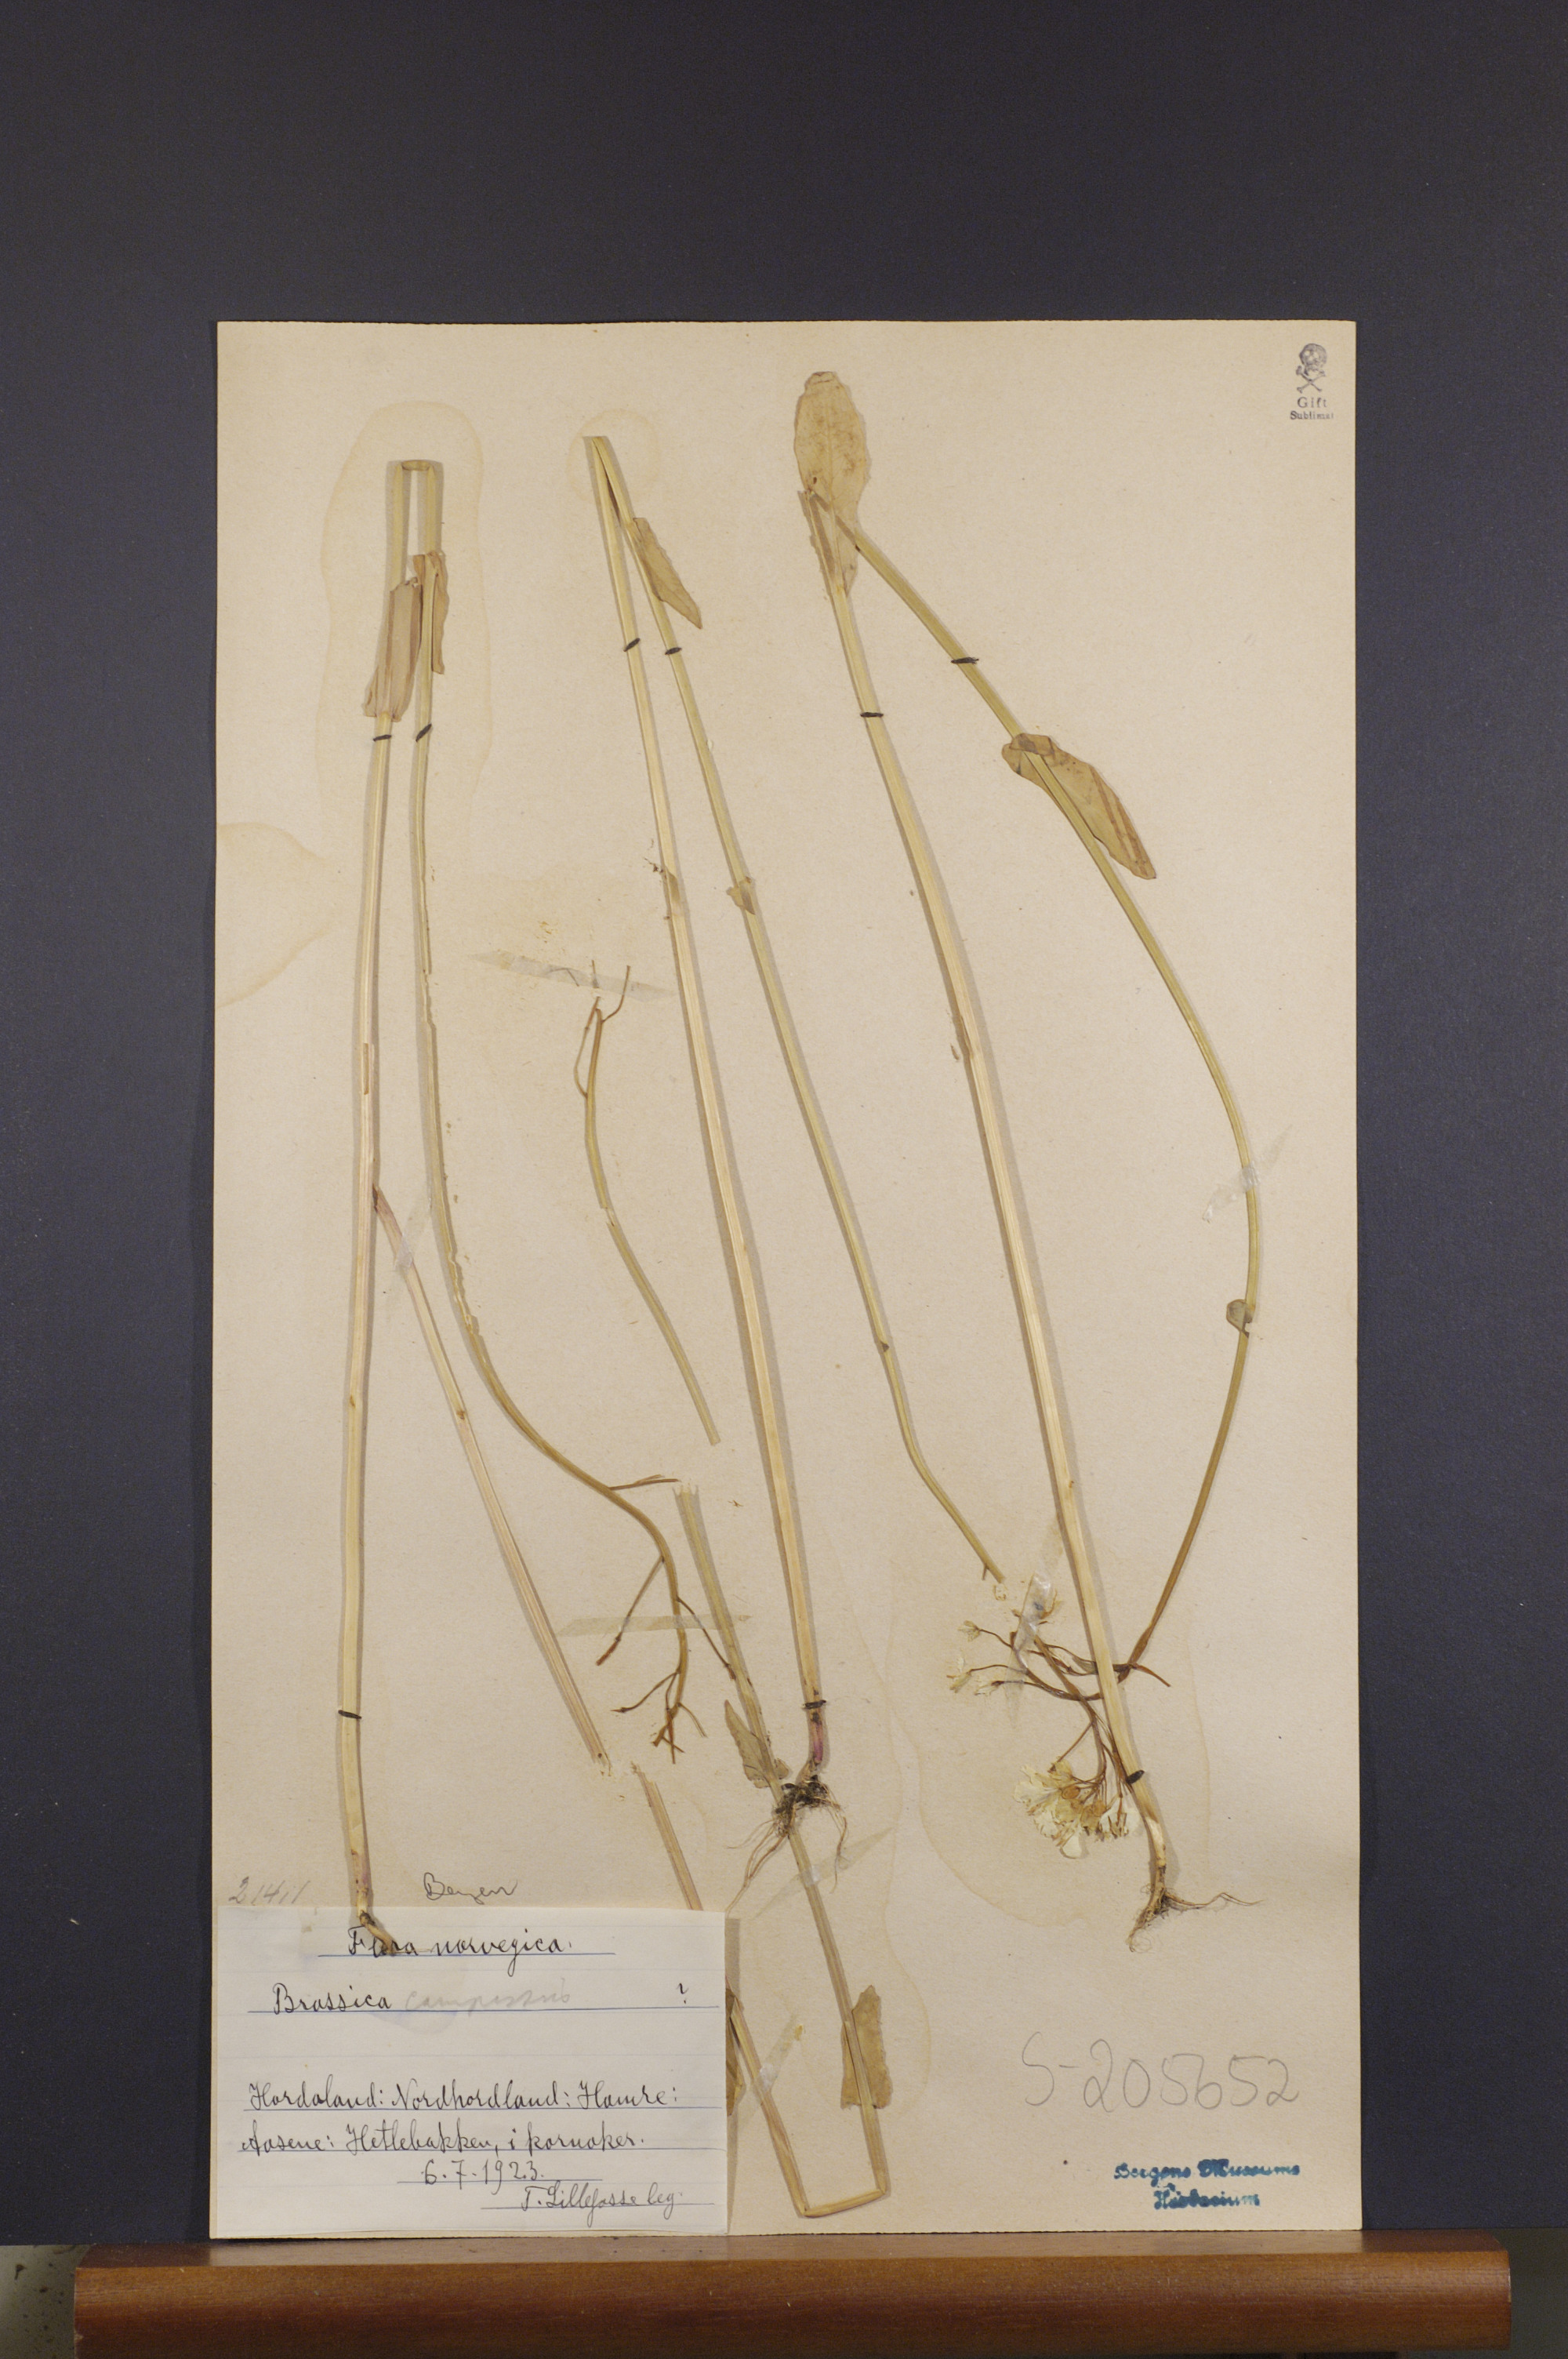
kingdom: Plantae
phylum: Tracheophyta
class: Magnoliopsida
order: Brassicales
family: Brassicaceae
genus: Brassica
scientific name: Brassica rapa
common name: Field mustard
